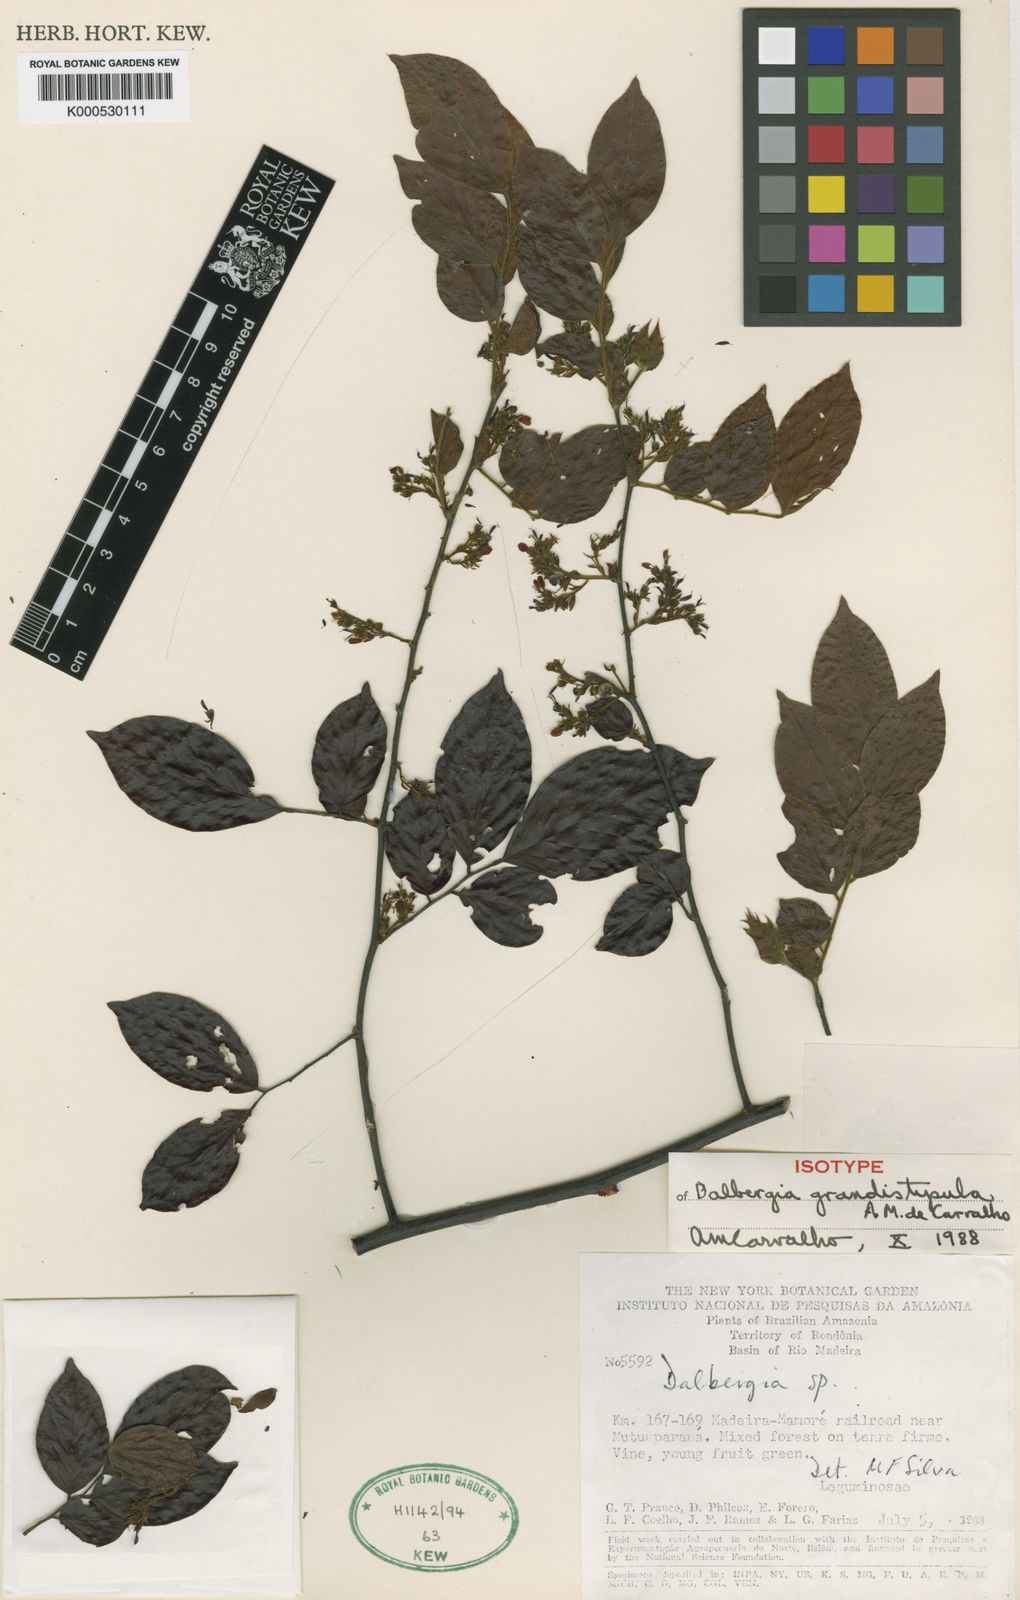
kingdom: Plantae
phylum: Tracheophyta
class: Magnoliopsida
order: Fabales
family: Fabaceae
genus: Dalbergia
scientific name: Dalbergia grandistipula
